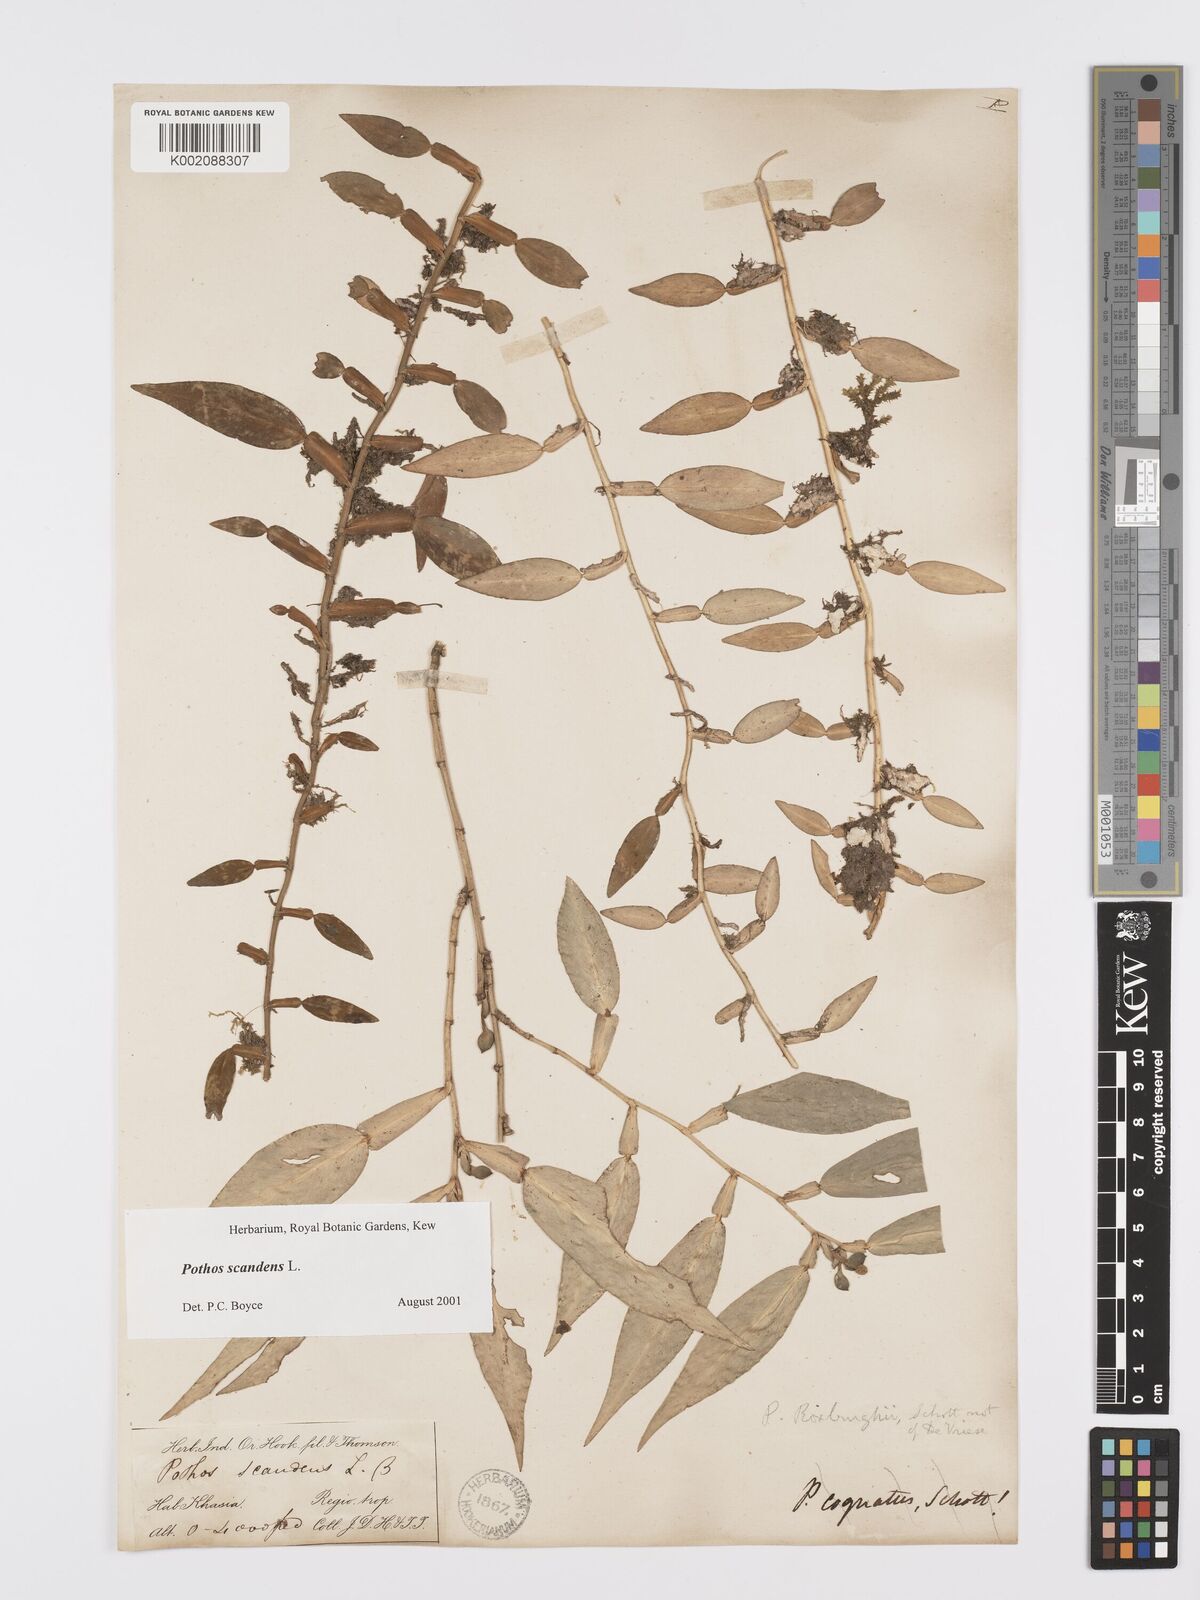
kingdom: Plantae
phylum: Tracheophyta
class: Liliopsida
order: Alismatales
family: Araceae
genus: Pothos
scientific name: Pothos scandens
